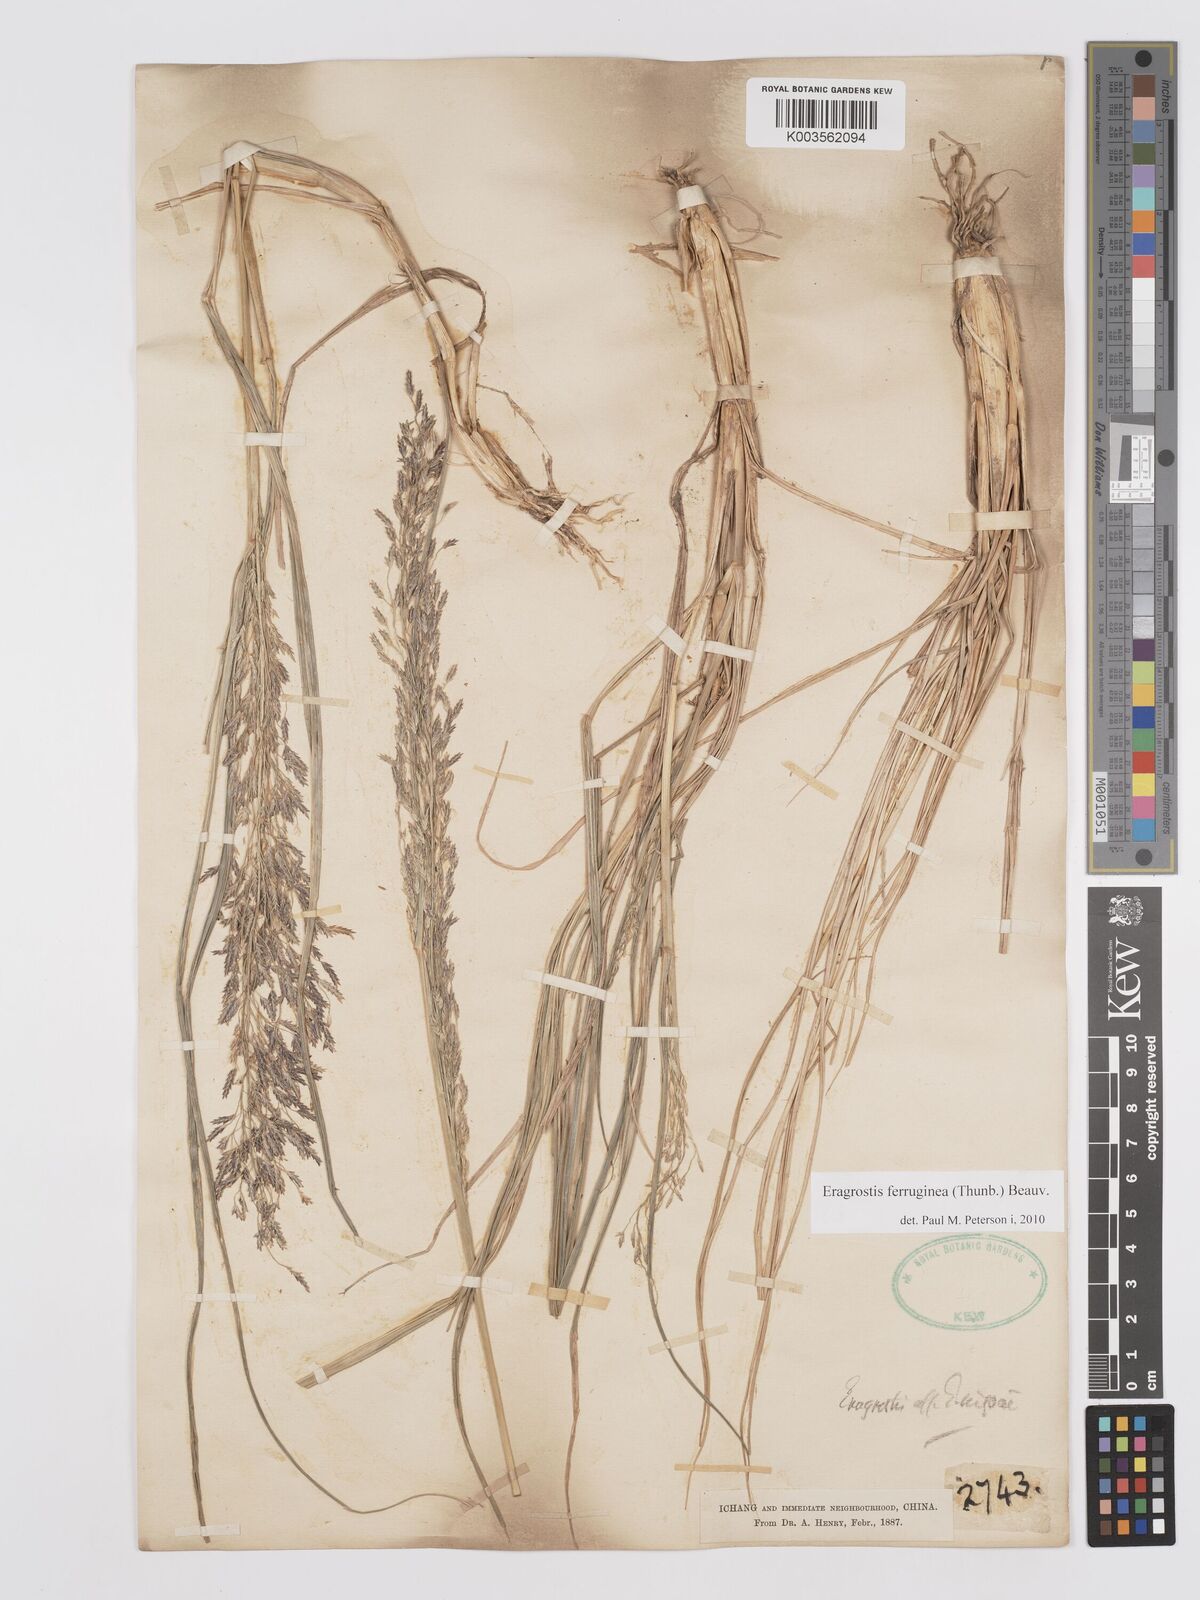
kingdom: Plantae
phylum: Tracheophyta
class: Liliopsida
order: Poales
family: Poaceae
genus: Eragrostis
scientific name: Eragrostis ferruginea
